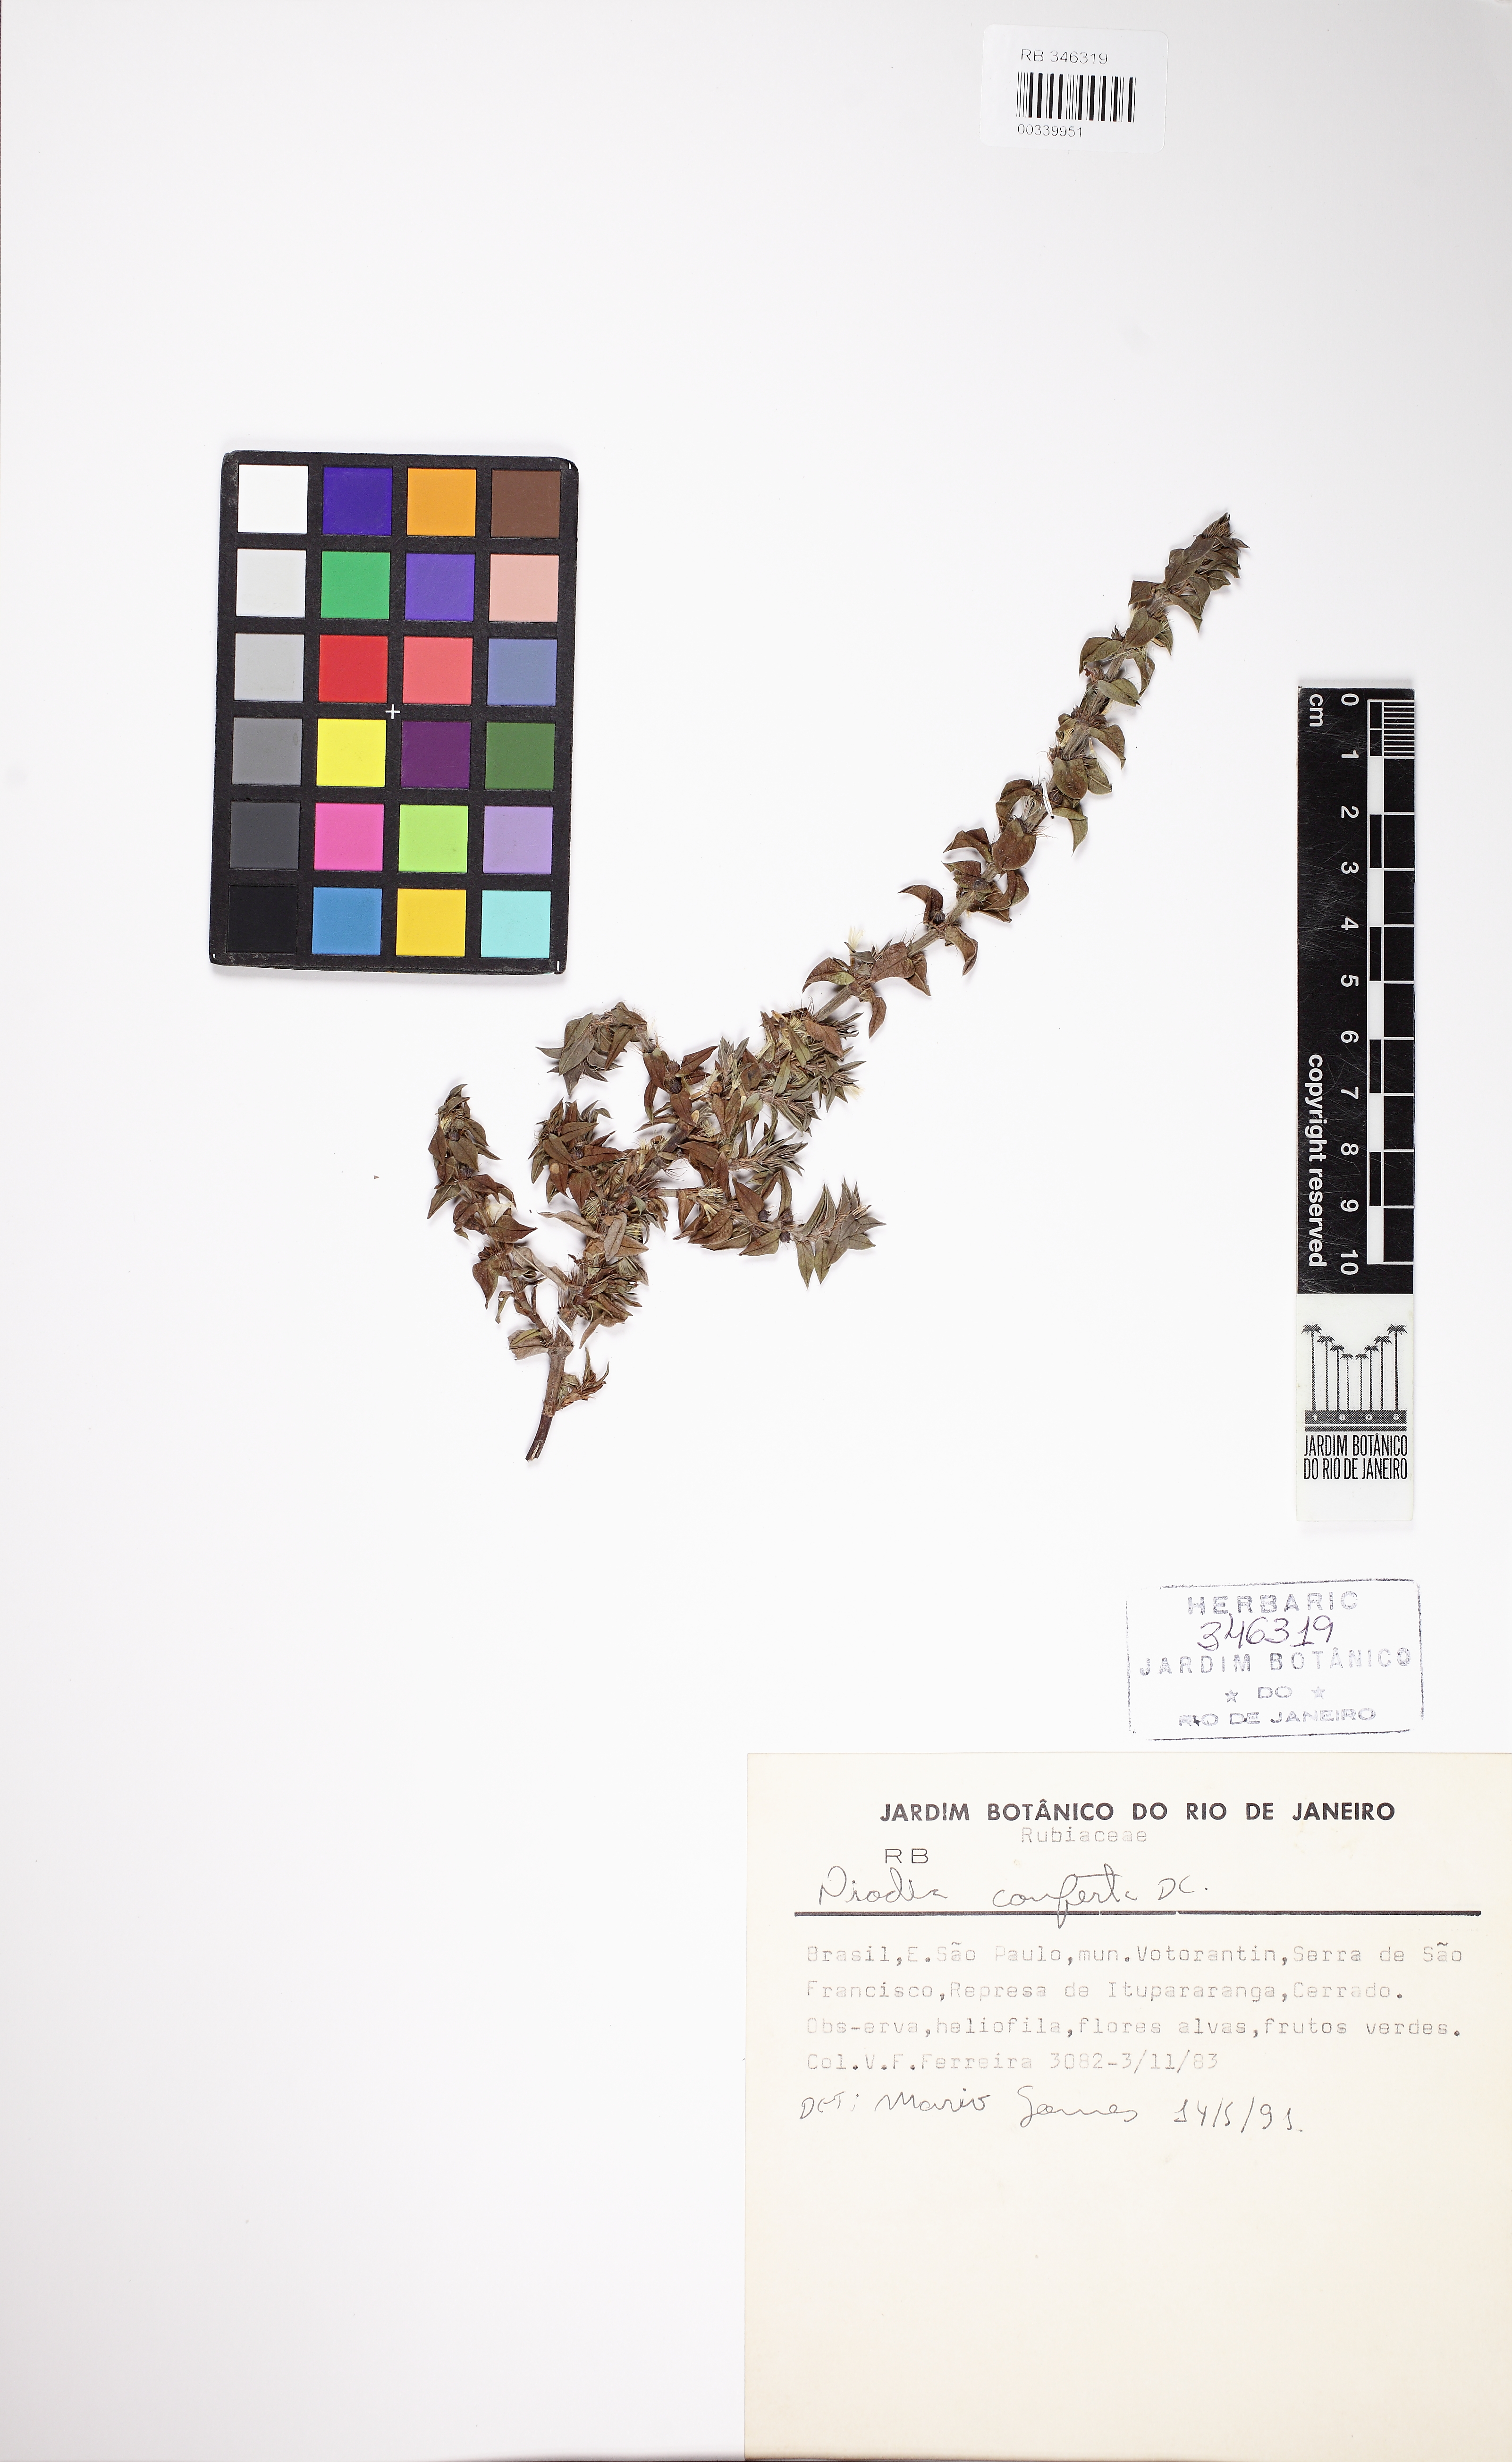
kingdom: Plantae
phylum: Tracheophyta
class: Magnoliopsida
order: Gentianales
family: Rubiaceae
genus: Hexasepalum
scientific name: Hexasepalum apiculatum
